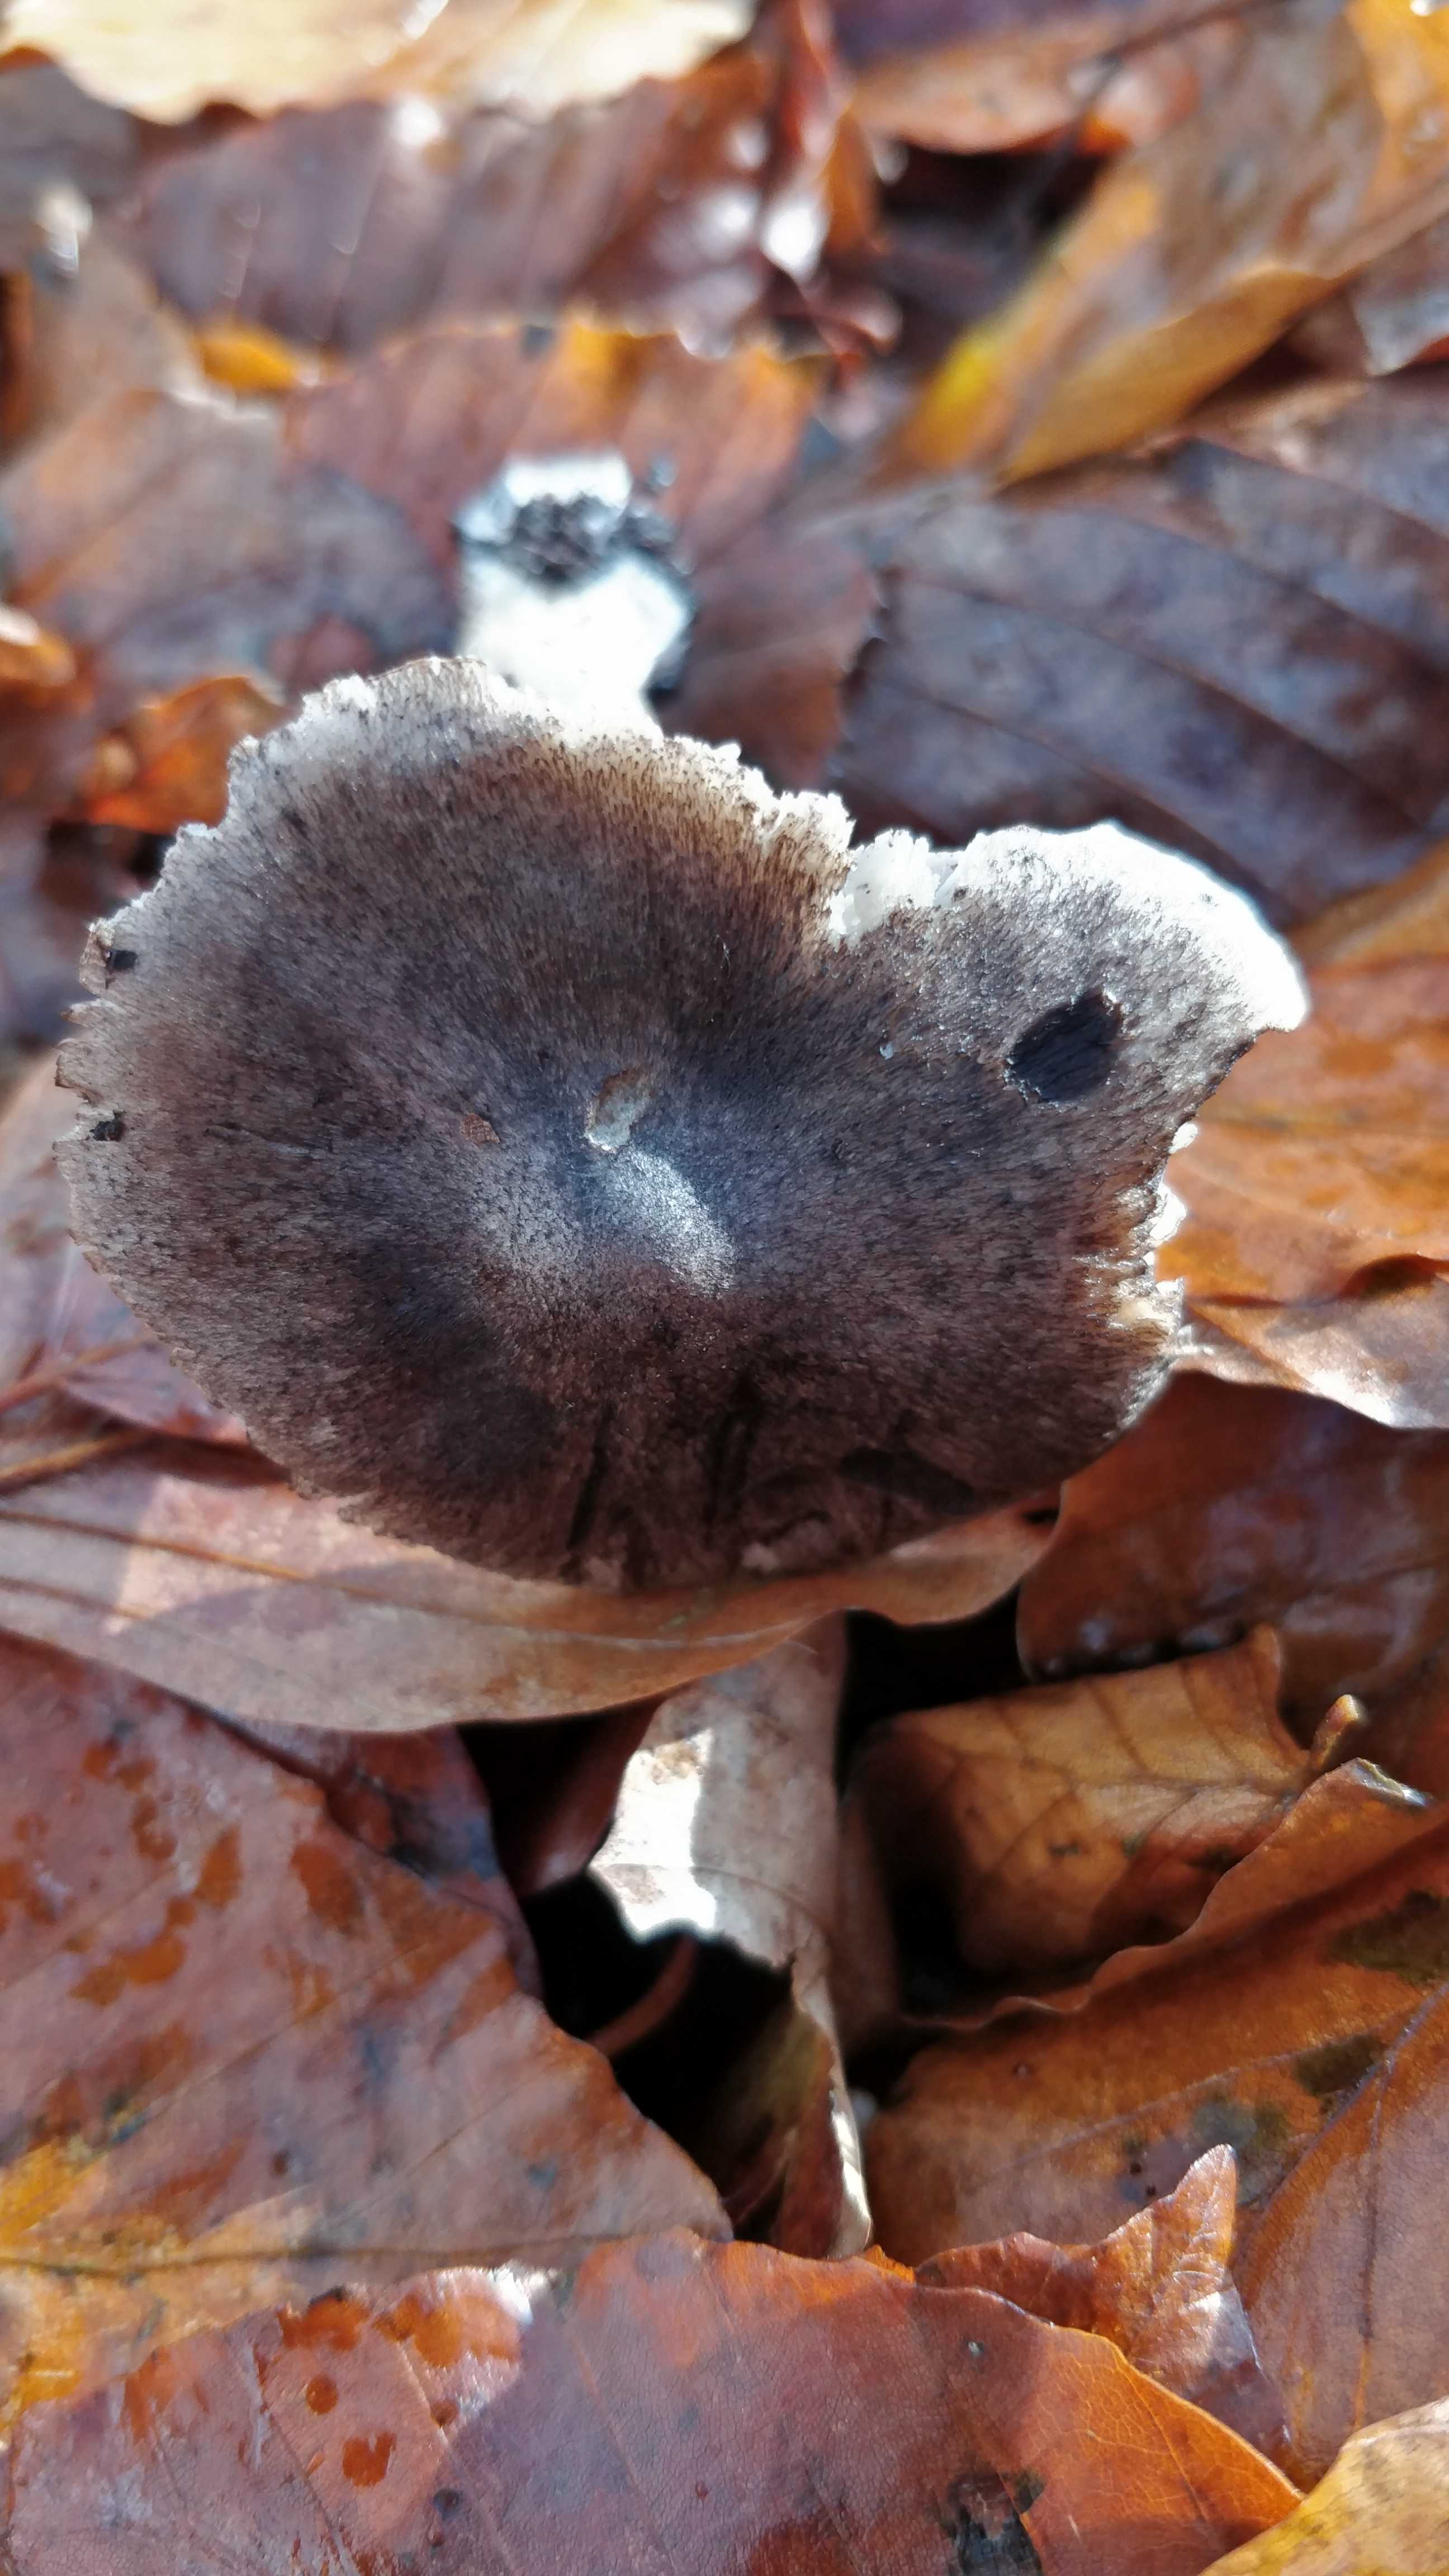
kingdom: Fungi
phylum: Basidiomycota
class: Agaricomycetes
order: Agaricales
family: Tricholomataceae
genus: Tricholoma
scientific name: Tricholoma sciodes
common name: stribet ridderhat
